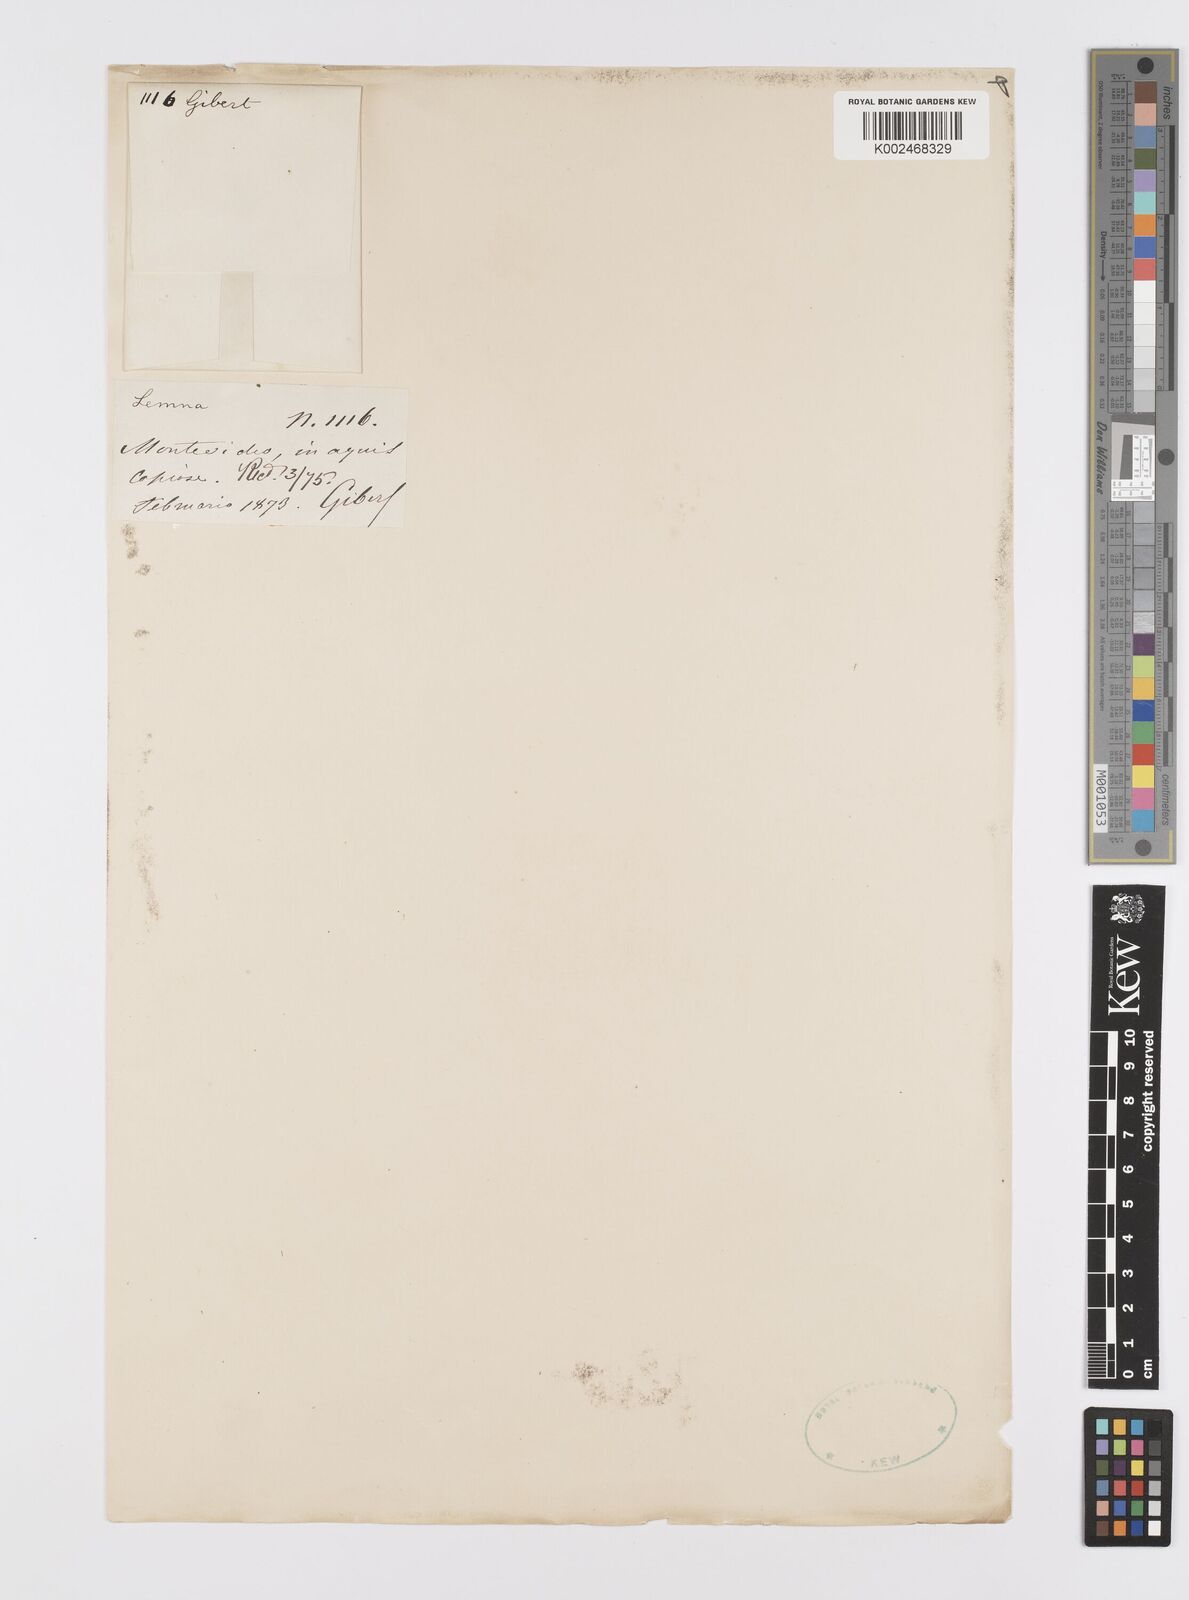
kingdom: Plantae
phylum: Tracheophyta
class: Liliopsida
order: Alismatales
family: Araceae
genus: Lemna
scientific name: Lemna
